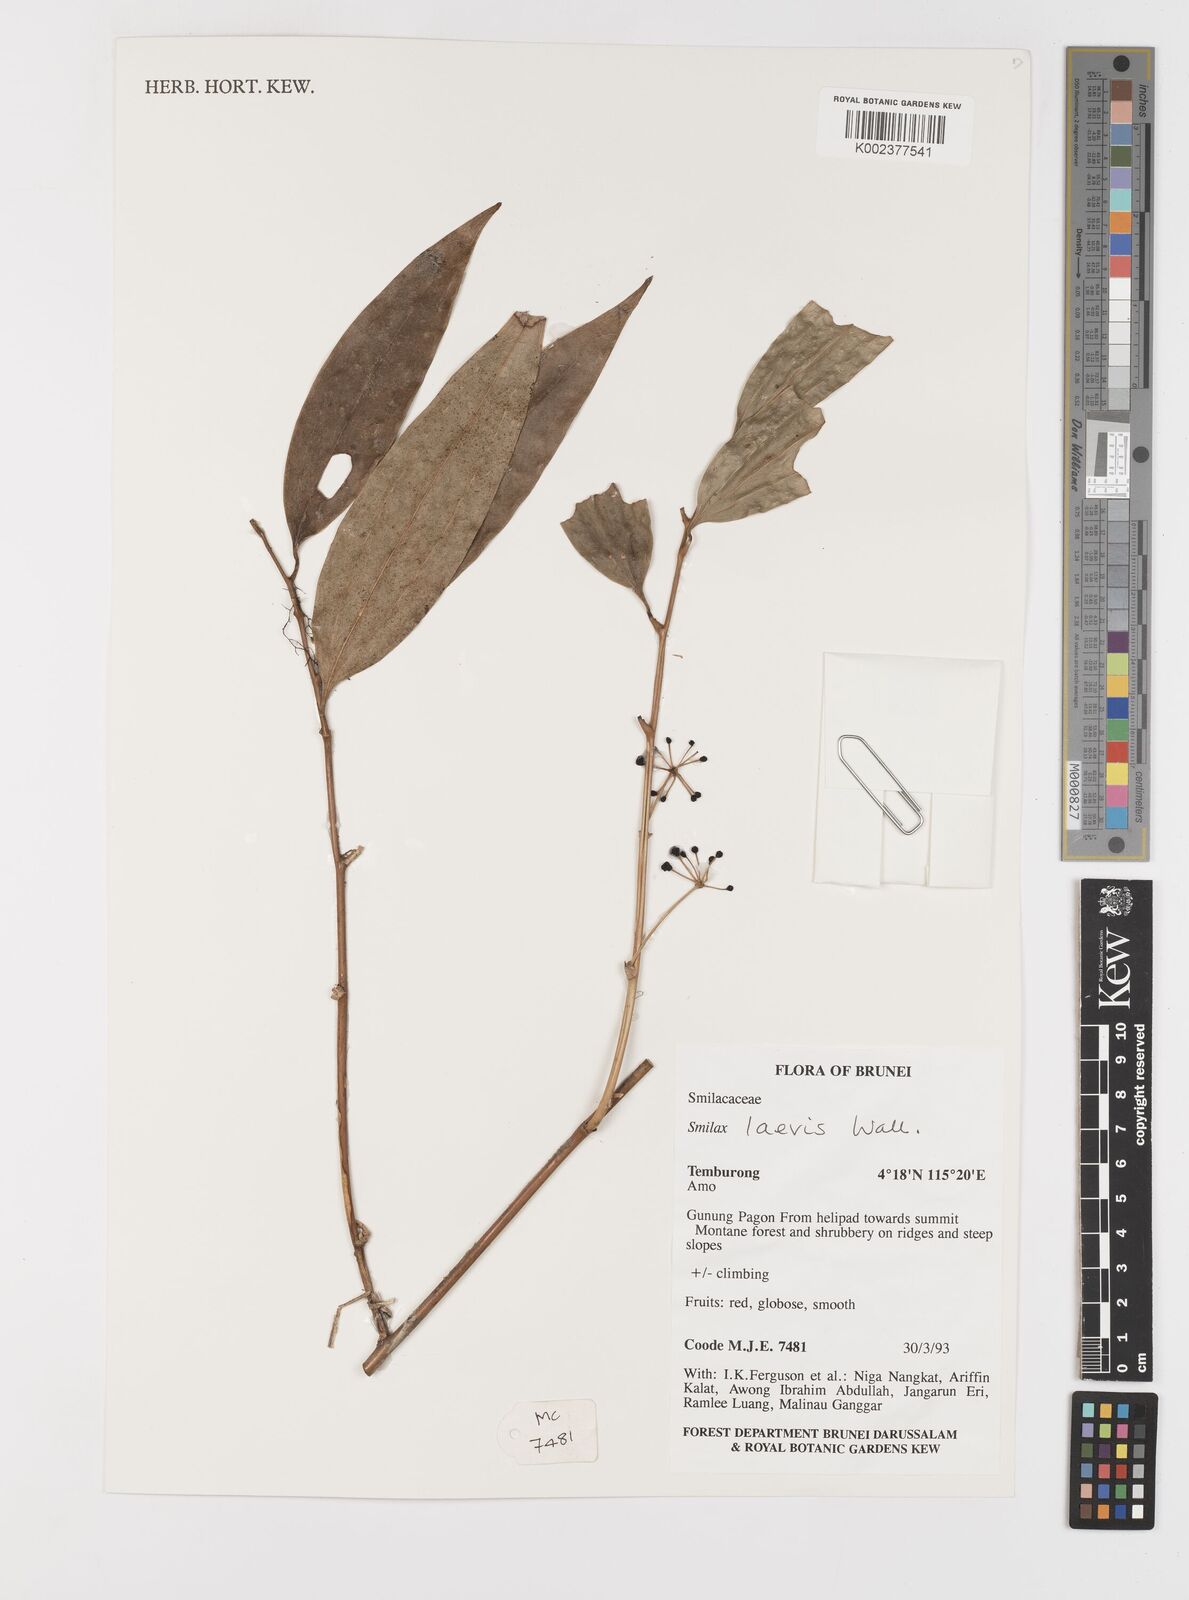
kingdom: Plantae
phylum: Tracheophyta
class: Liliopsida
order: Liliales
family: Smilacaceae
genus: Smilax
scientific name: Smilax laevis
